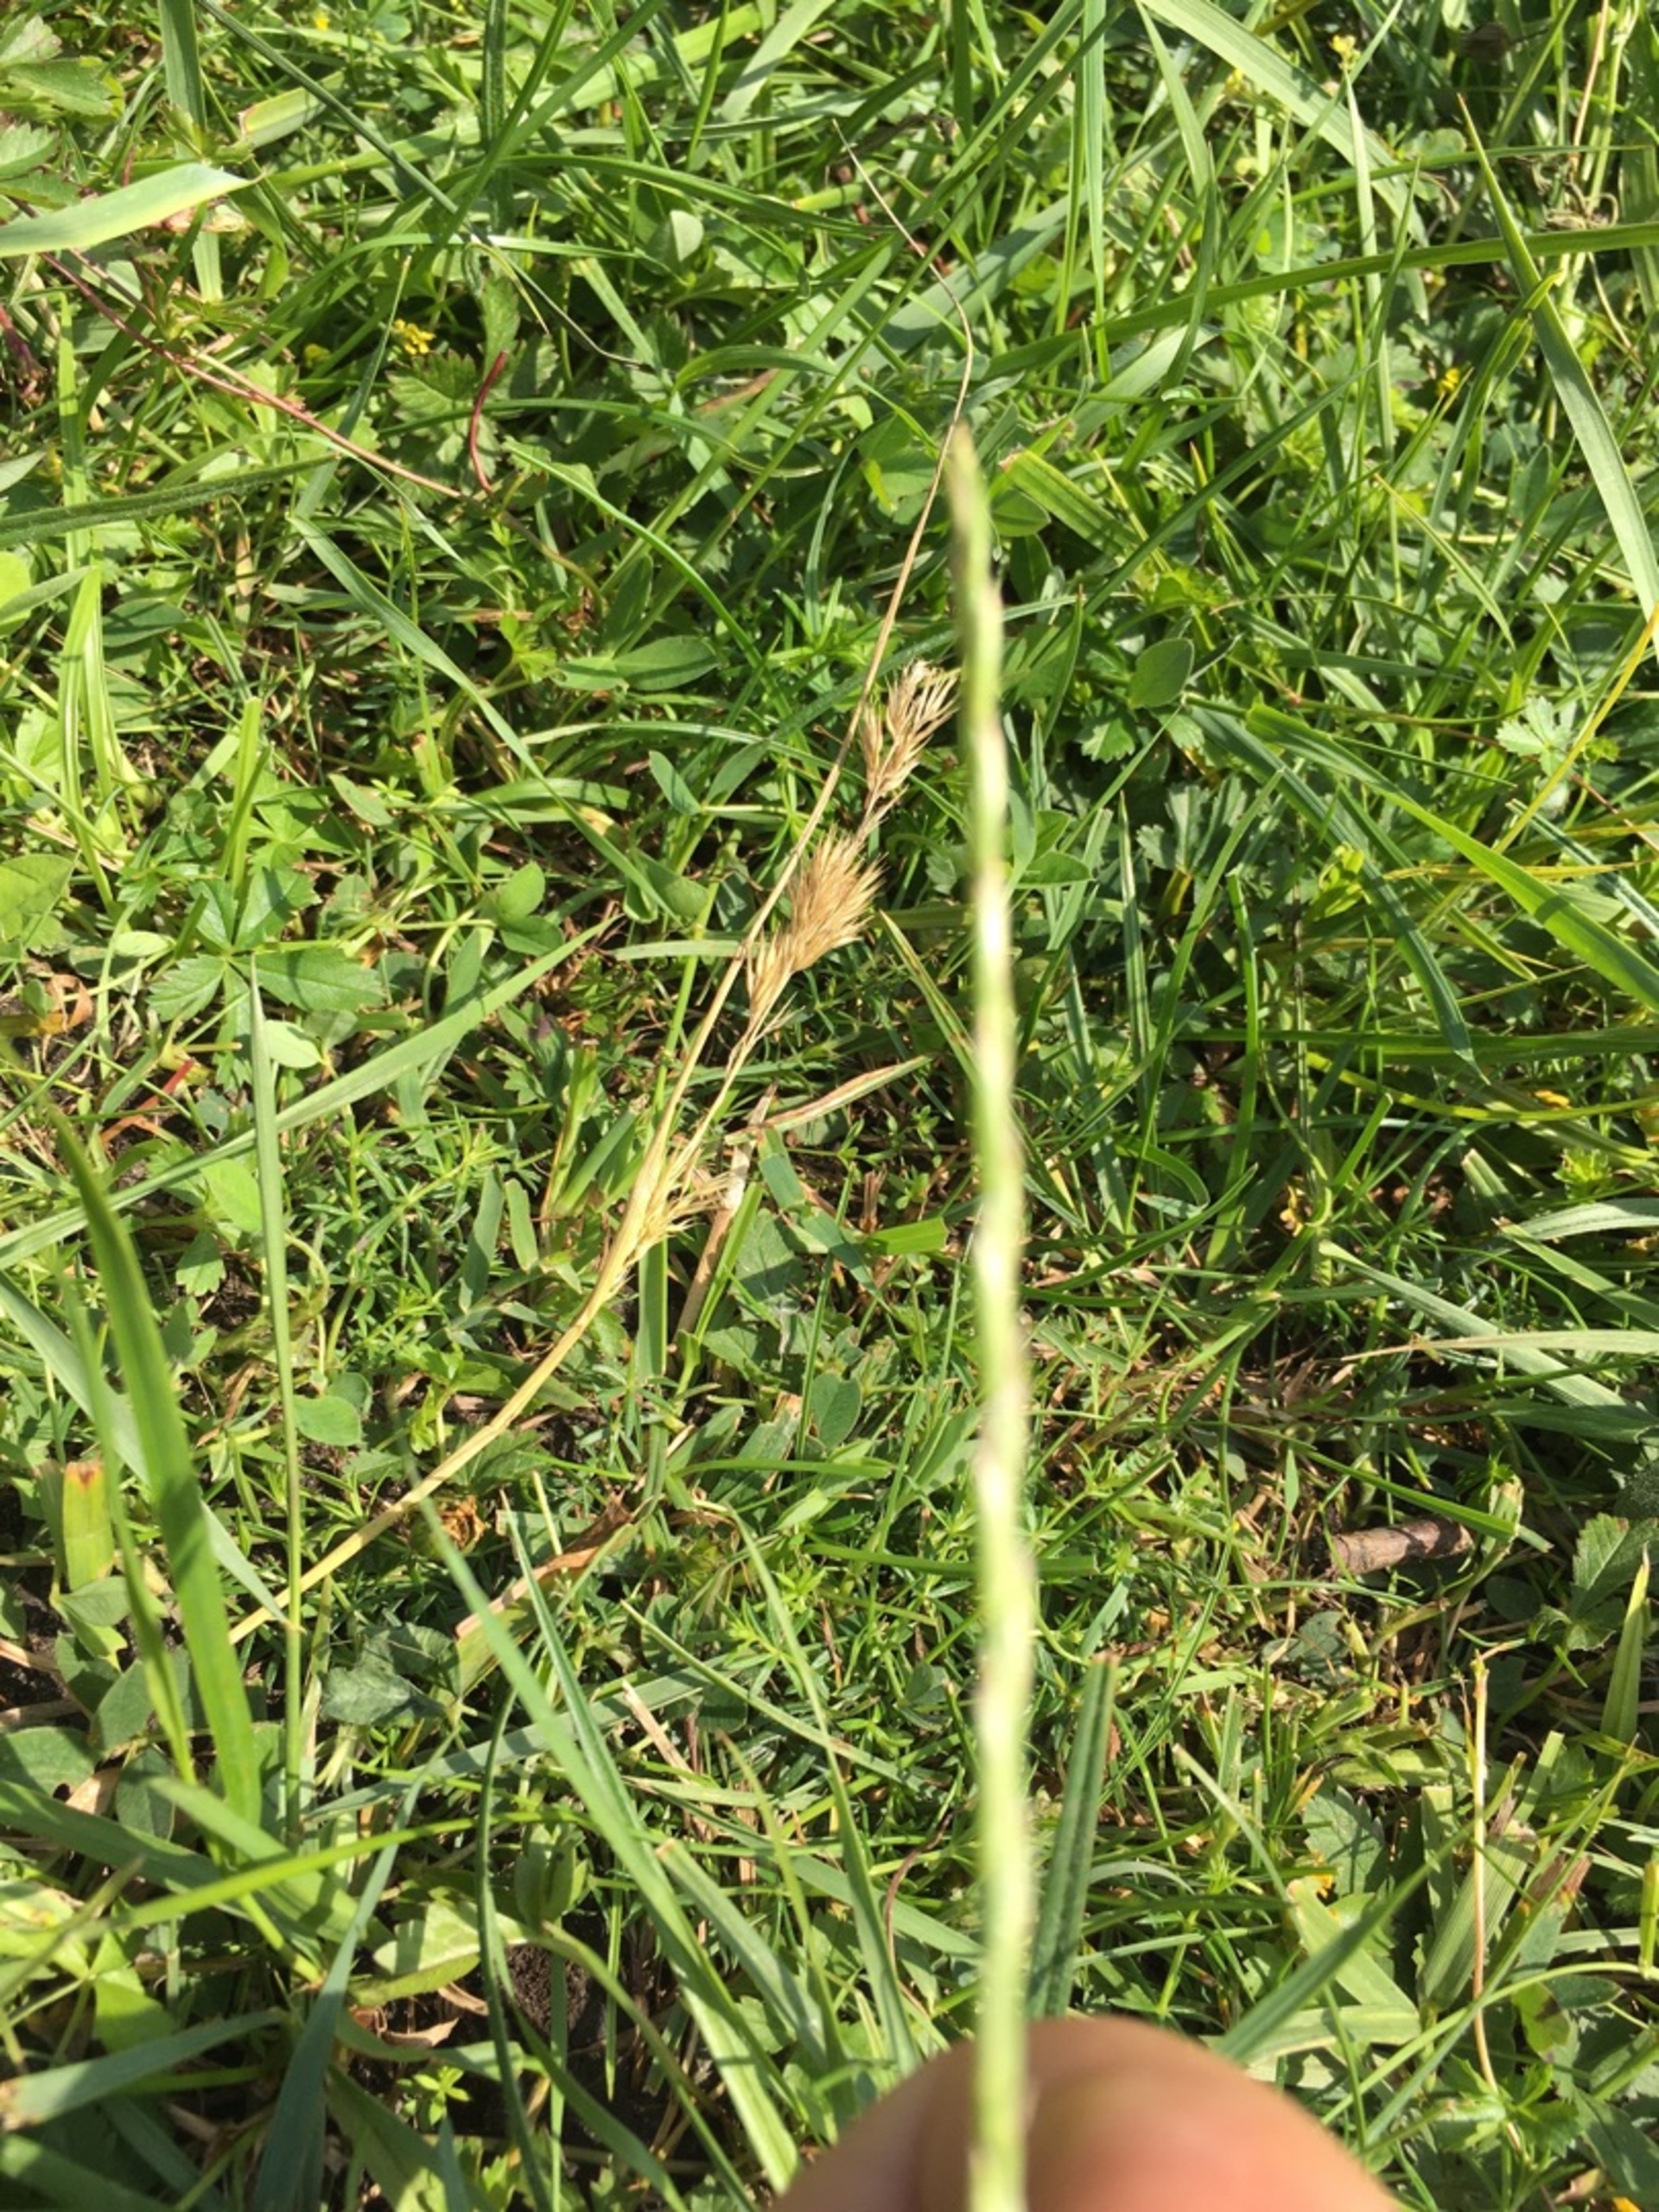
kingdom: Plantae
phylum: Tracheophyta
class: Liliopsida
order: Poales
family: Poaceae
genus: Lolium
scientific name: Lolium perenne
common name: Almindelig rajgræs
